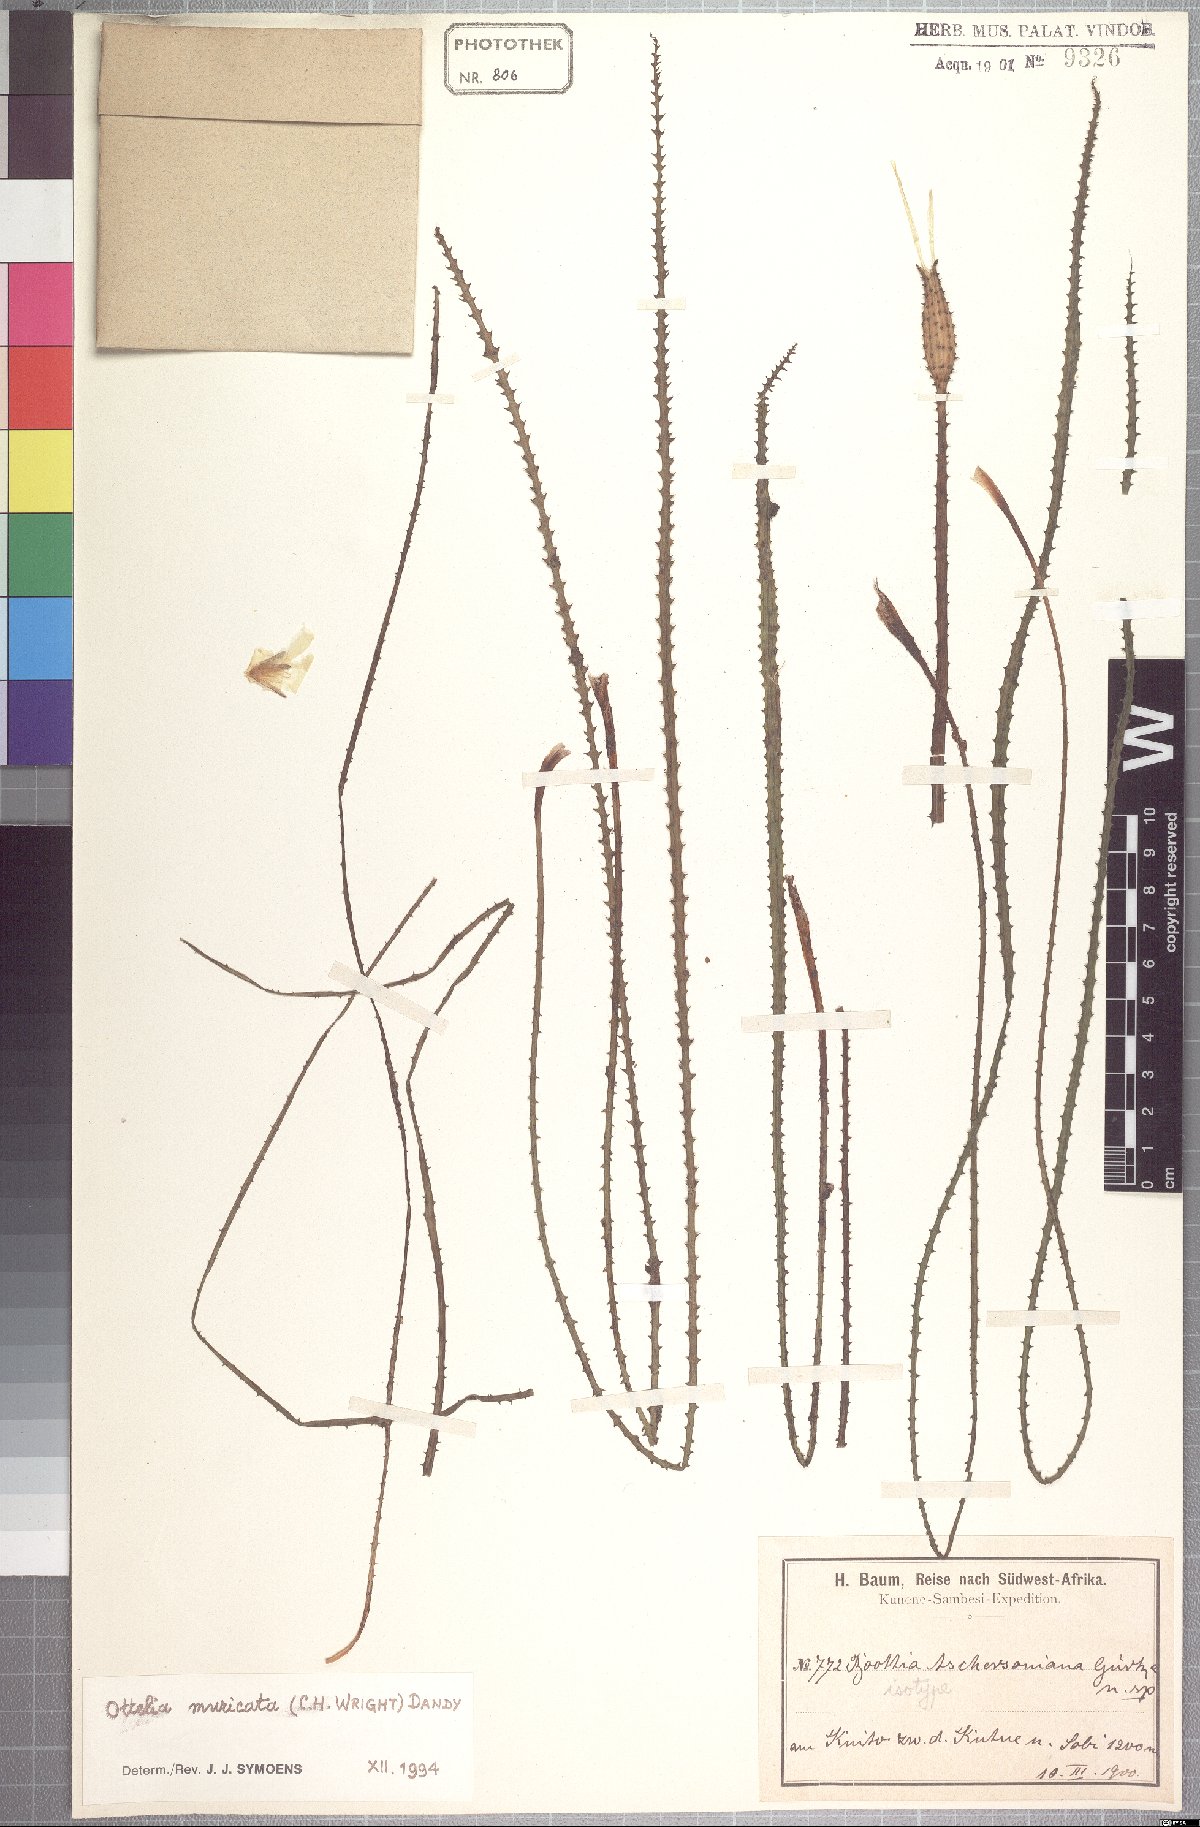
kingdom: Plantae
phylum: Tracheophyta
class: Liliopsida
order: Alismatales
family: Hydrocharitaceae
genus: Ottelia
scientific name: Ottelia muricata
